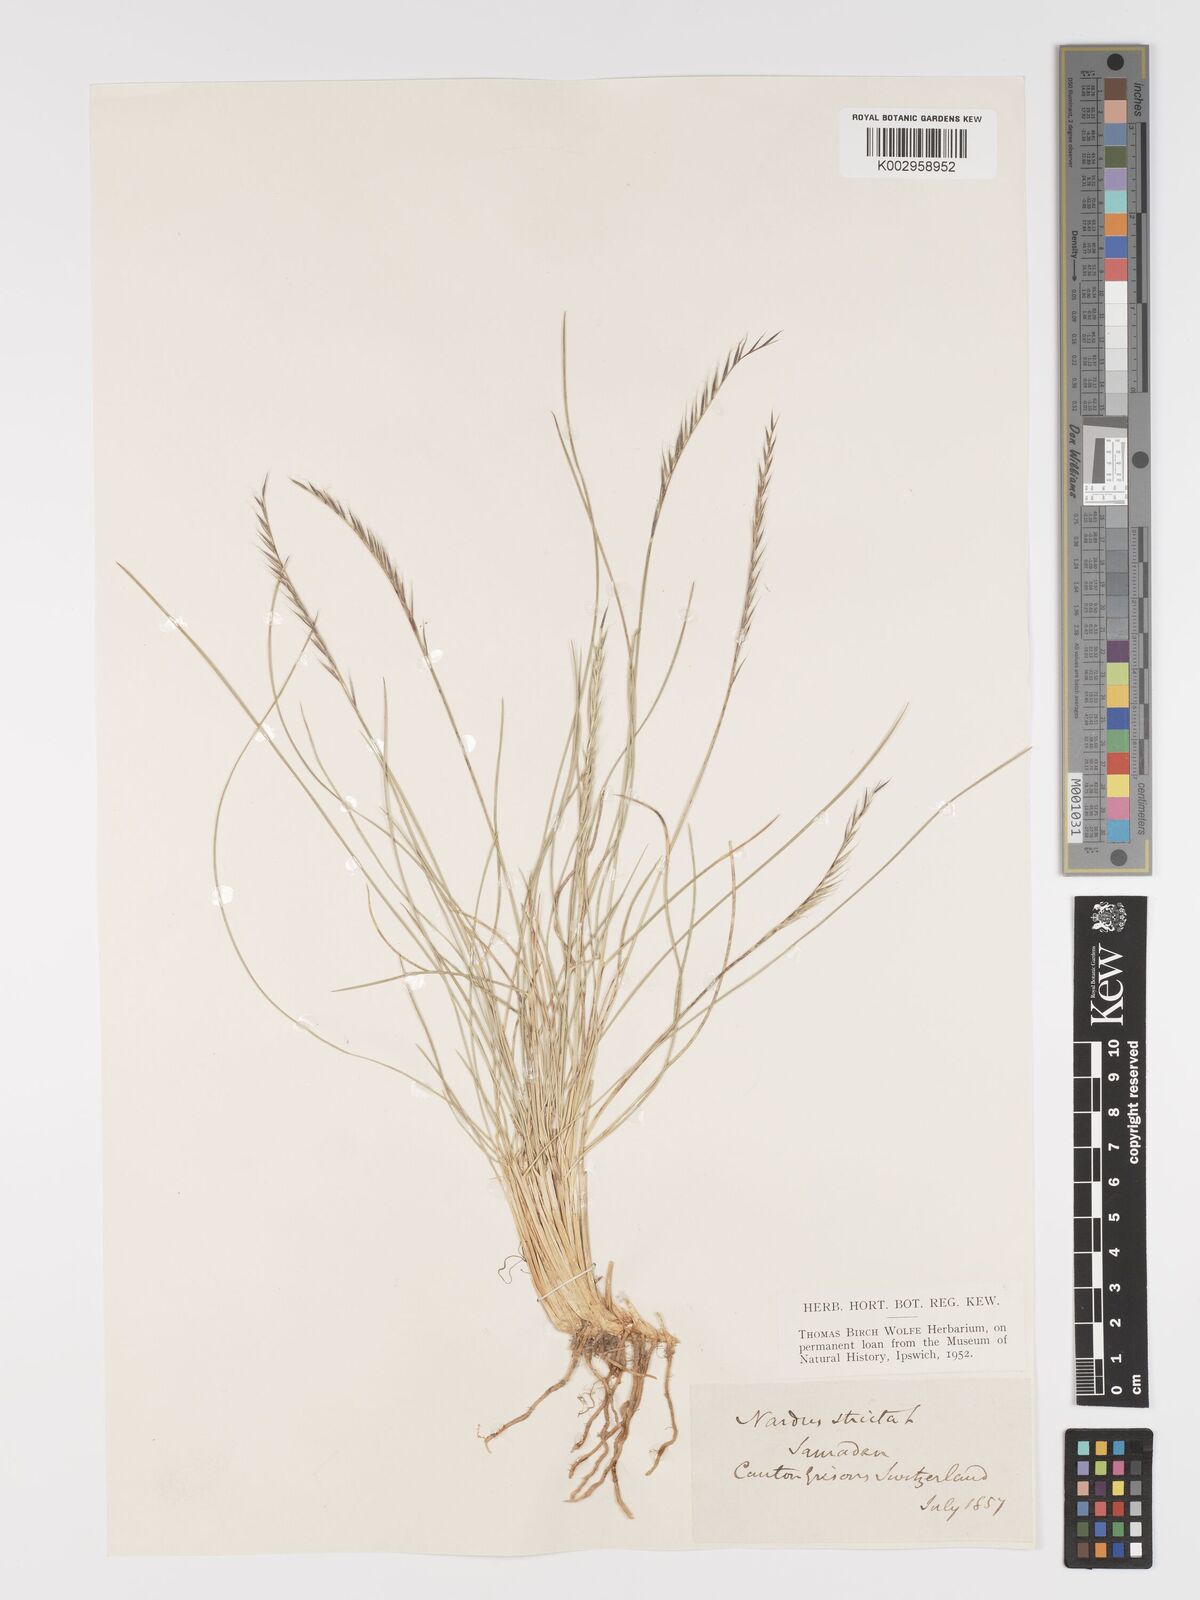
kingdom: Plantae
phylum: Tracheophyta
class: Liliopsida
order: Poales
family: Poaceae
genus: Nardus
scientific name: Nardus stricta
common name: Mat-grass
